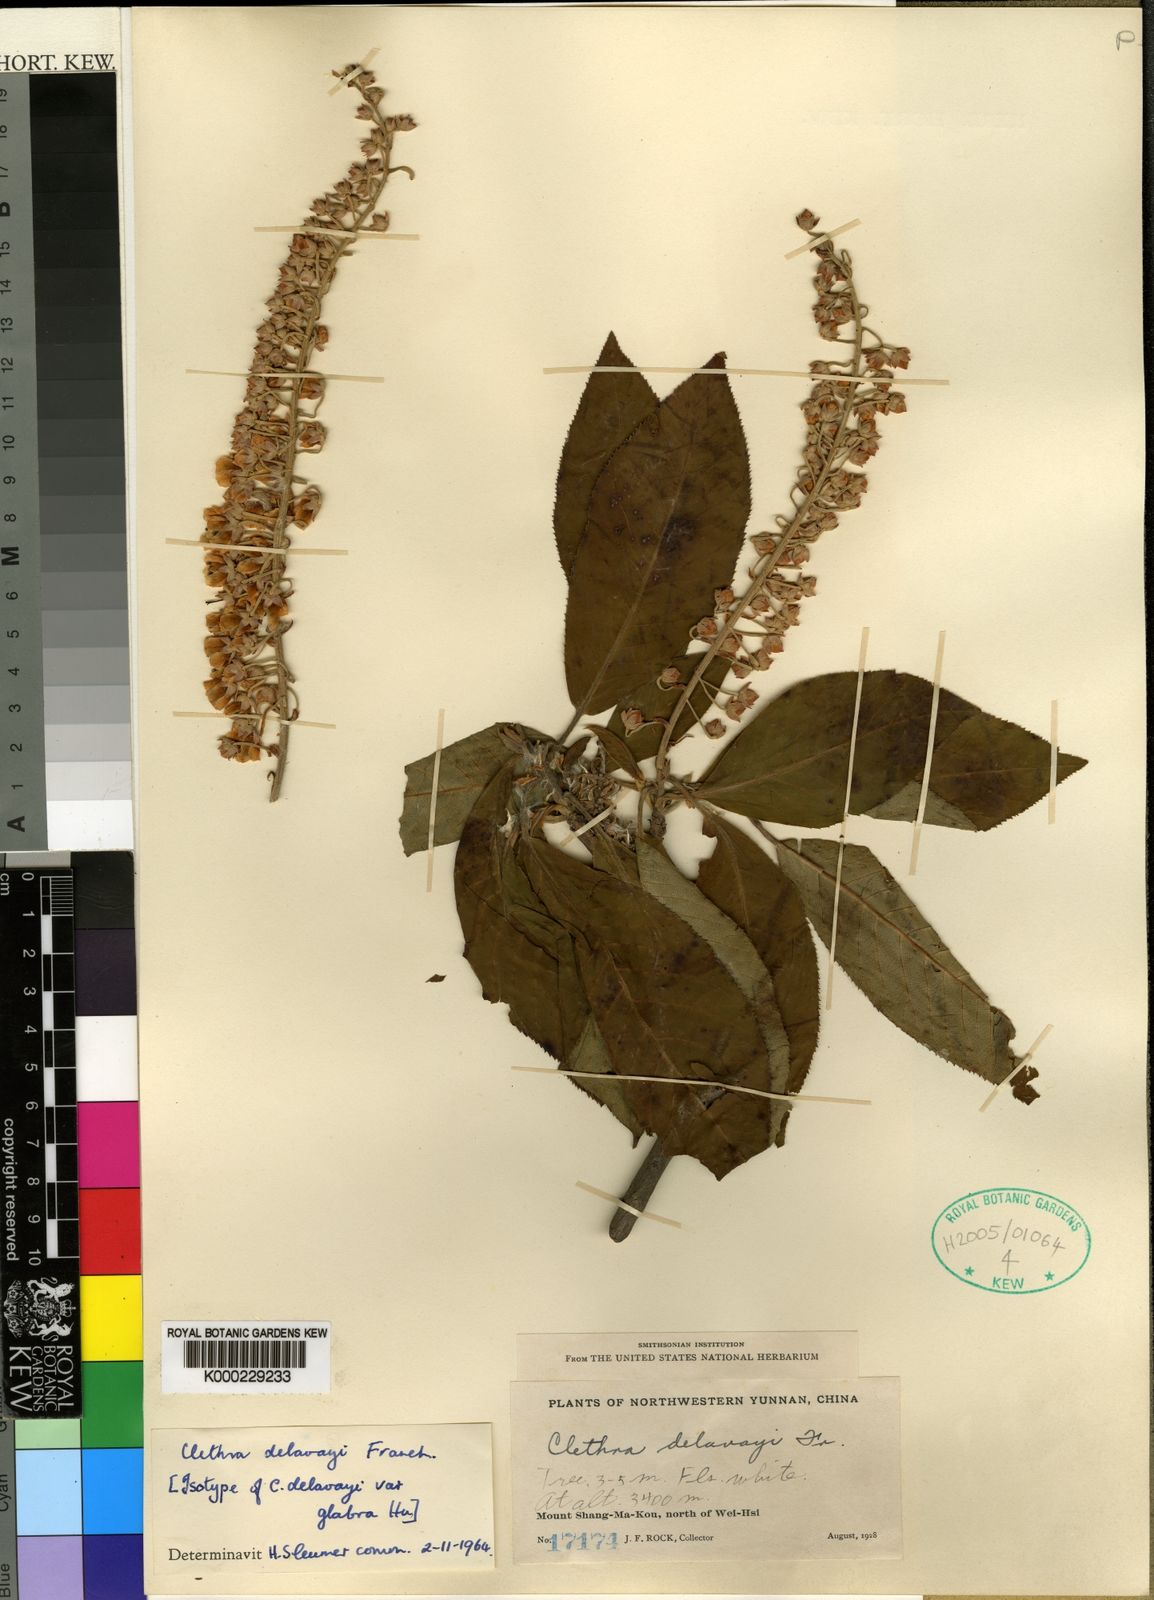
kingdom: Plantae
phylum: Tracheophyta
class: Magnoliopsida
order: Ericales
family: Clethraceae
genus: Clethra
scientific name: Clethra delavayi
